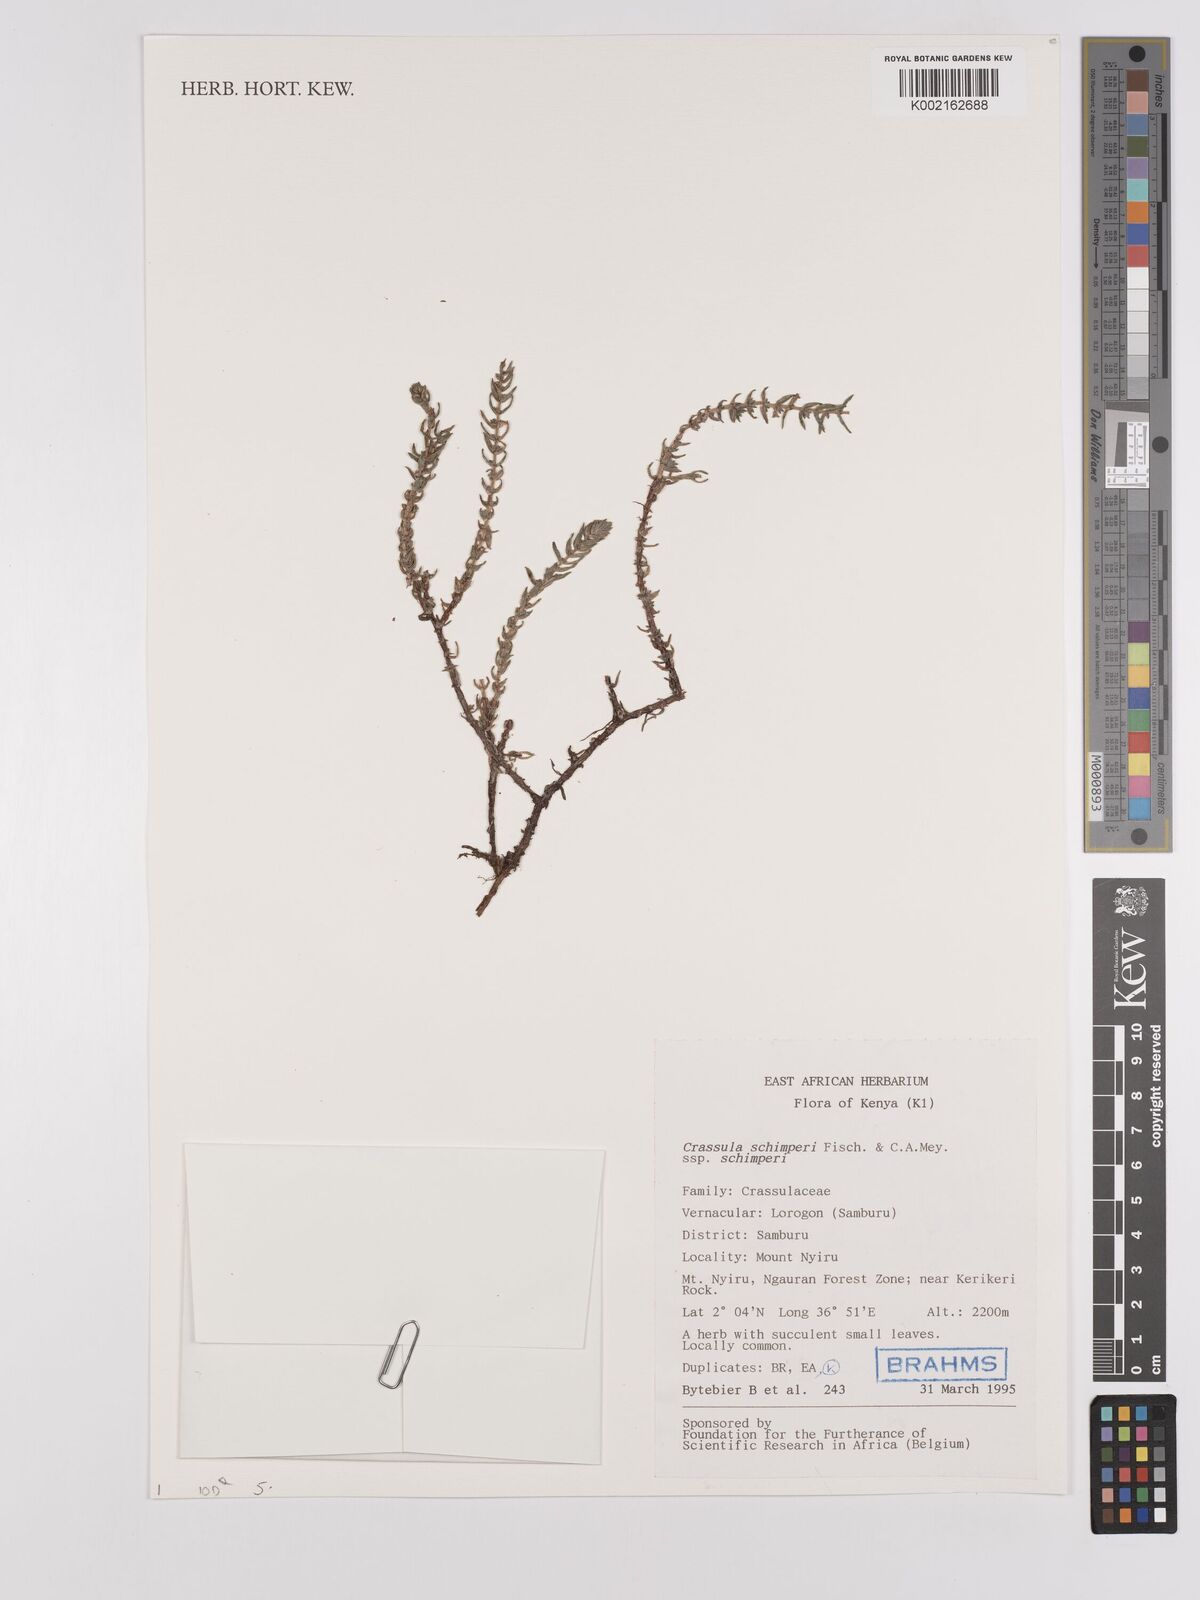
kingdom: Plantae
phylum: Tracheophyta
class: Magnoliopsida
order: Saxifragales
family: Crassulaceae
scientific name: Crassulaceae
